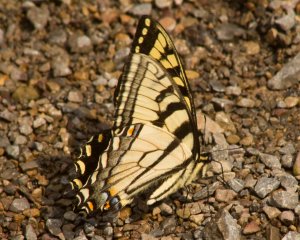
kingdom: Animalia
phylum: Arthropoda
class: Insecta
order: Lepidoptera
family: Papilionidae
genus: Pterourus
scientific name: Pterourus glaucus
